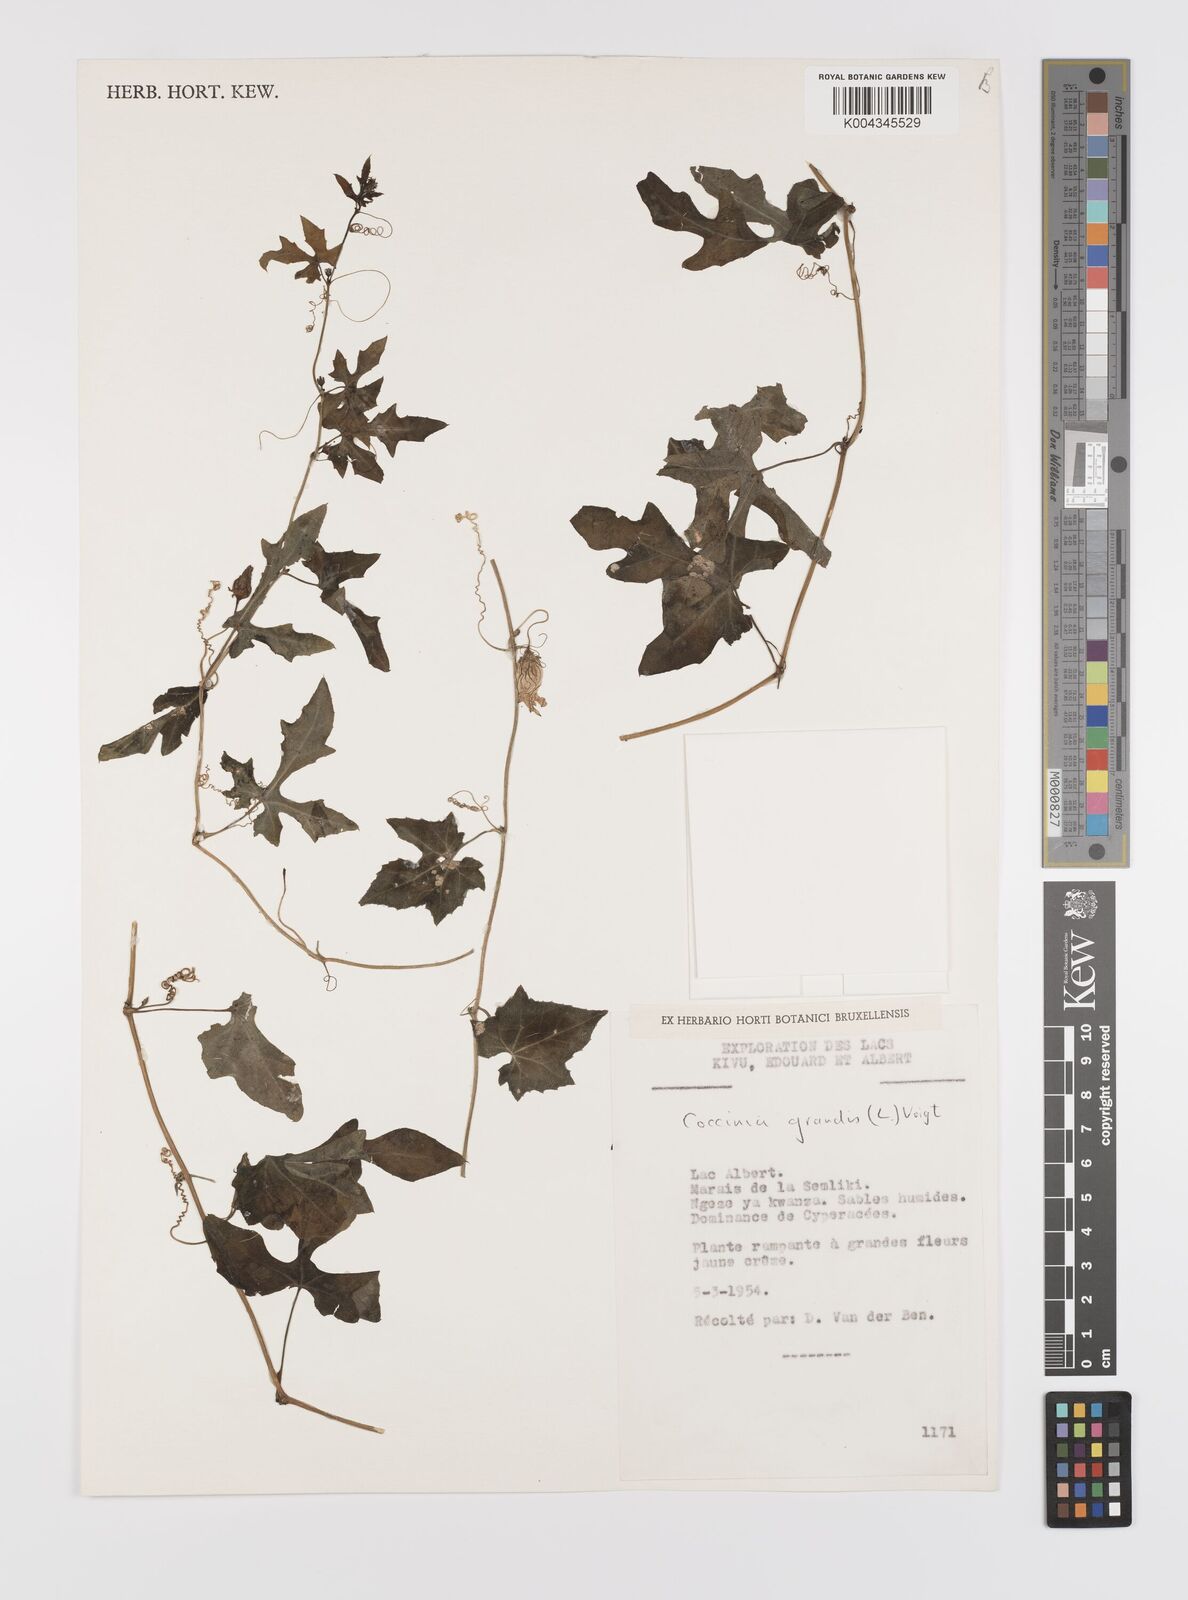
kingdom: Plantae
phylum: Tracheophyta
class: Magnoliopsida
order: Cucurbitales
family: Cucurbitaceae
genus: Coccinia
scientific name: Coccinia grandis
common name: Ivy gourd
